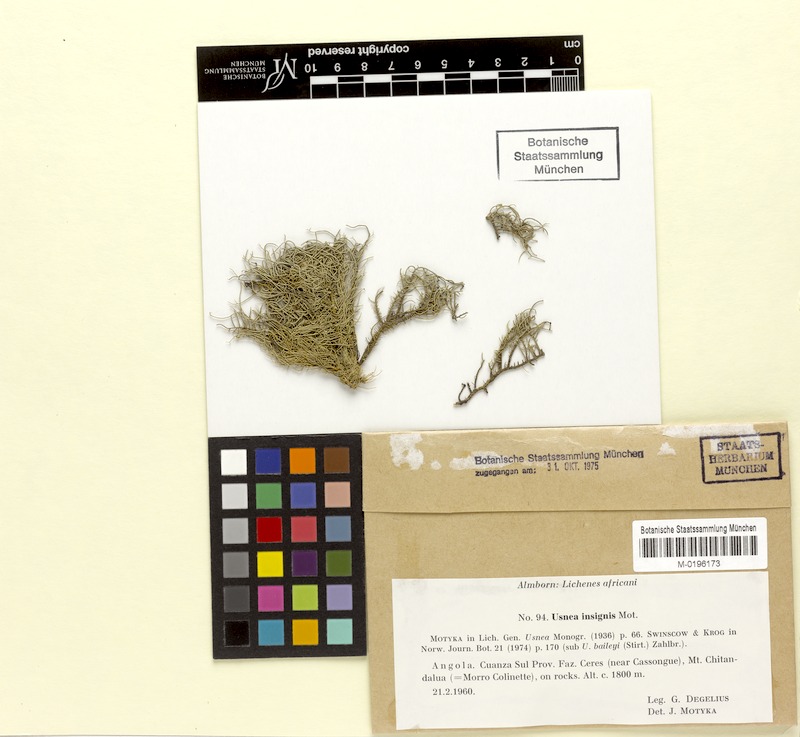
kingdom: Fungi
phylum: Ascomycota
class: Lecanoromycetes
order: Lecanorales
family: Parmeliaceae
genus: Usnea
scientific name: Usnea insignis
